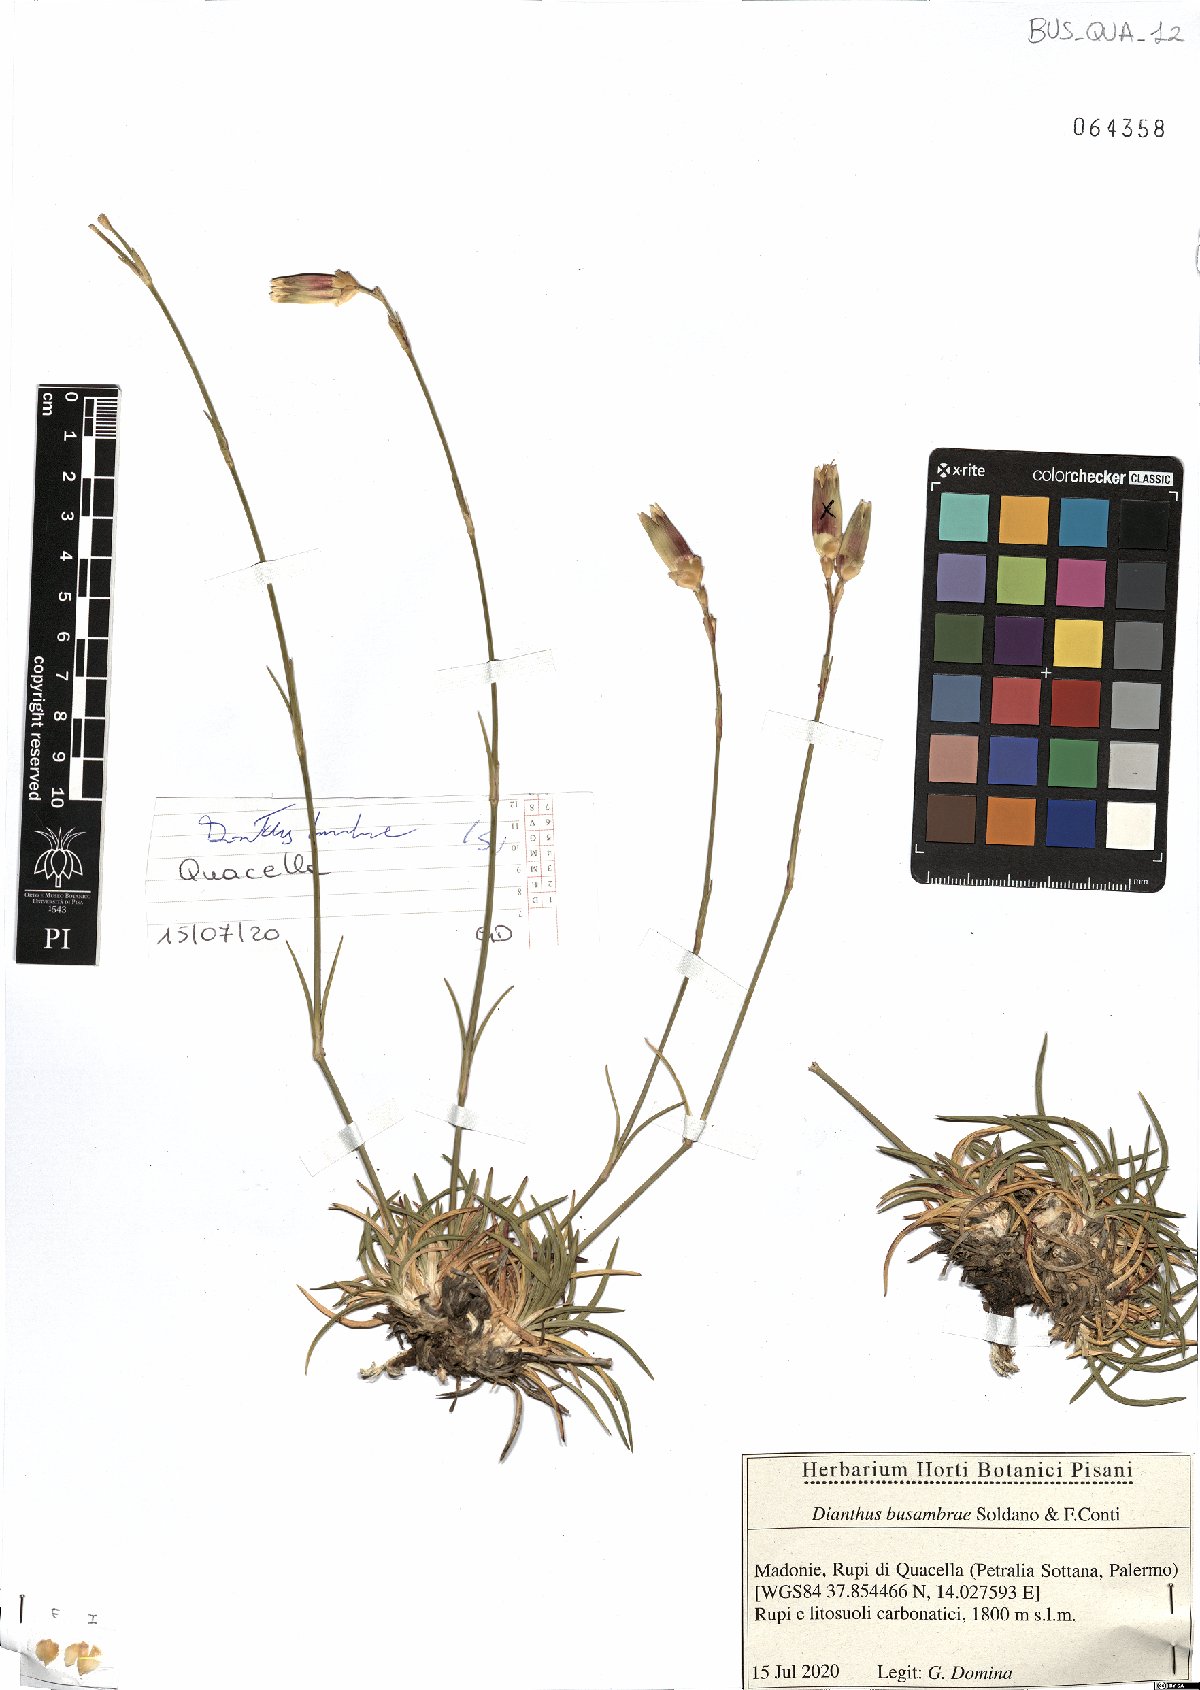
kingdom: Plantae
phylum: Tracheophyta
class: Magnoliopsida
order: Caryophyllales
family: Caryophyllaceae
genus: Dianthus
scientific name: Dianthus busambrae
